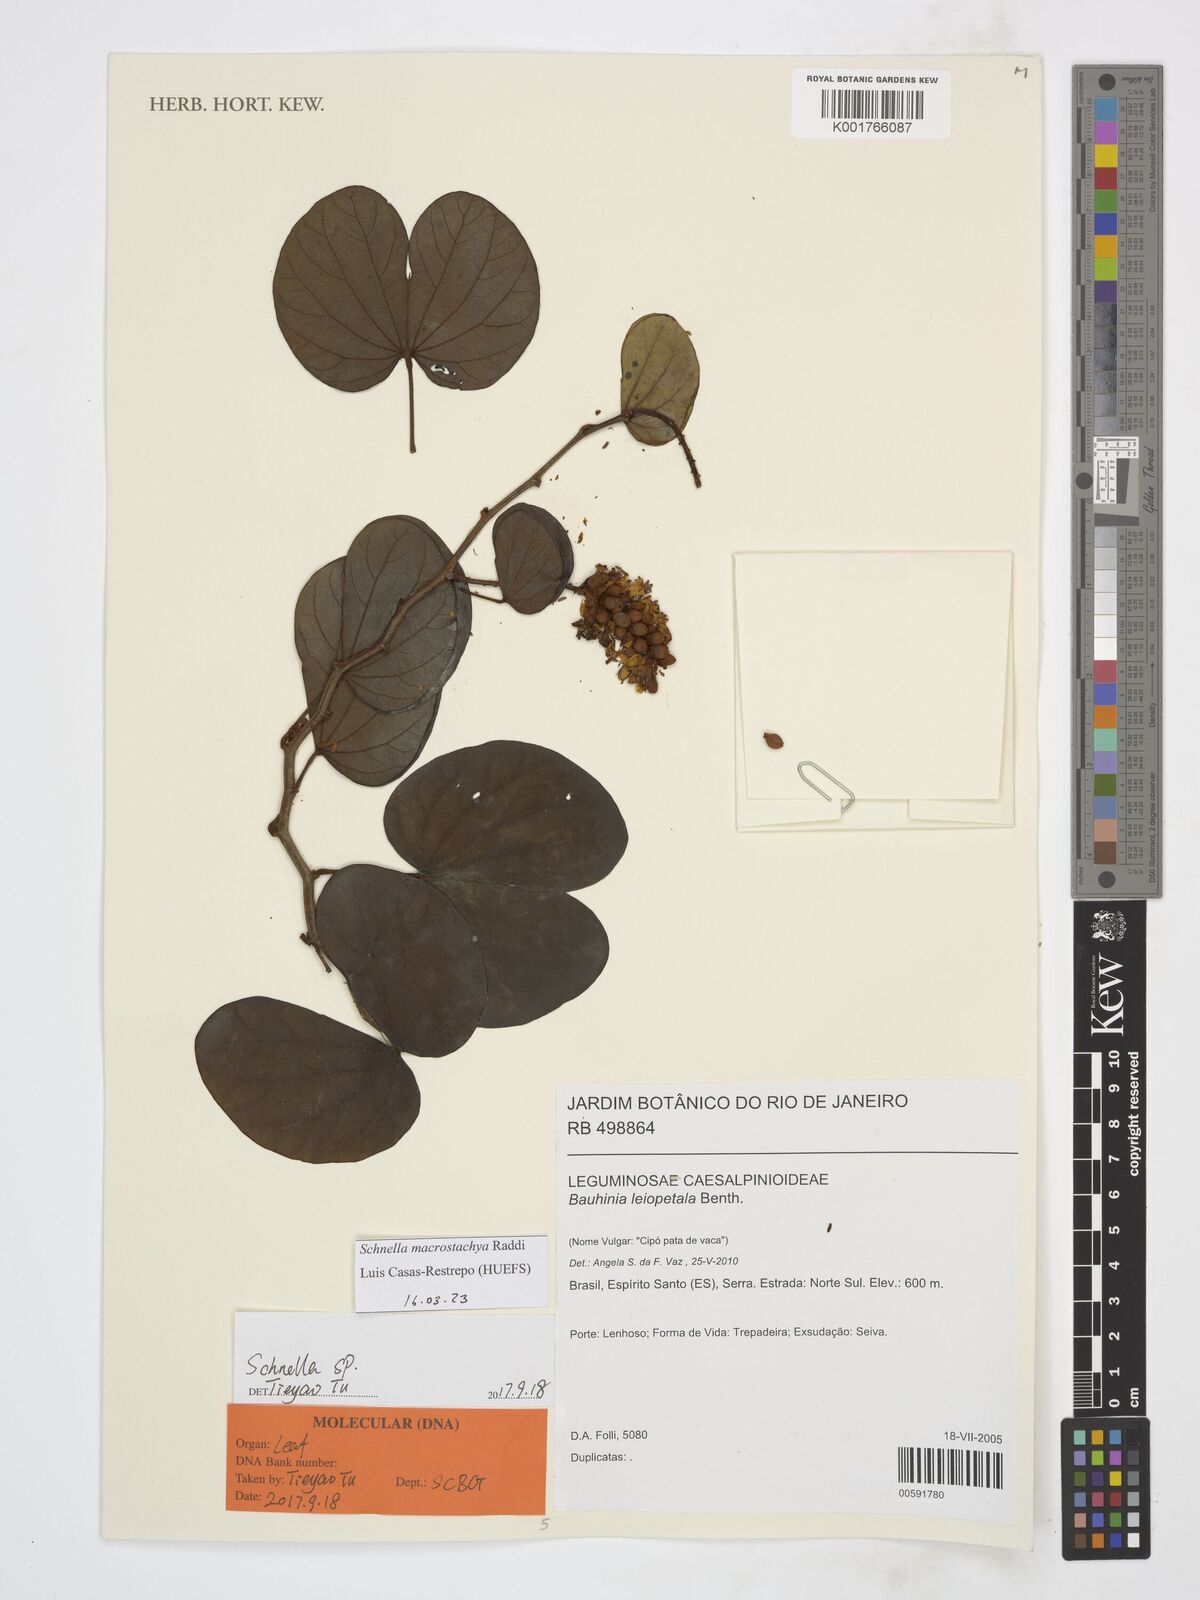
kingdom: Plantae
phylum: Tracheophyta
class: Magnoliopsida
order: Fabales
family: Fabaceae
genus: Schnella
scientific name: Schnella macrostachya
